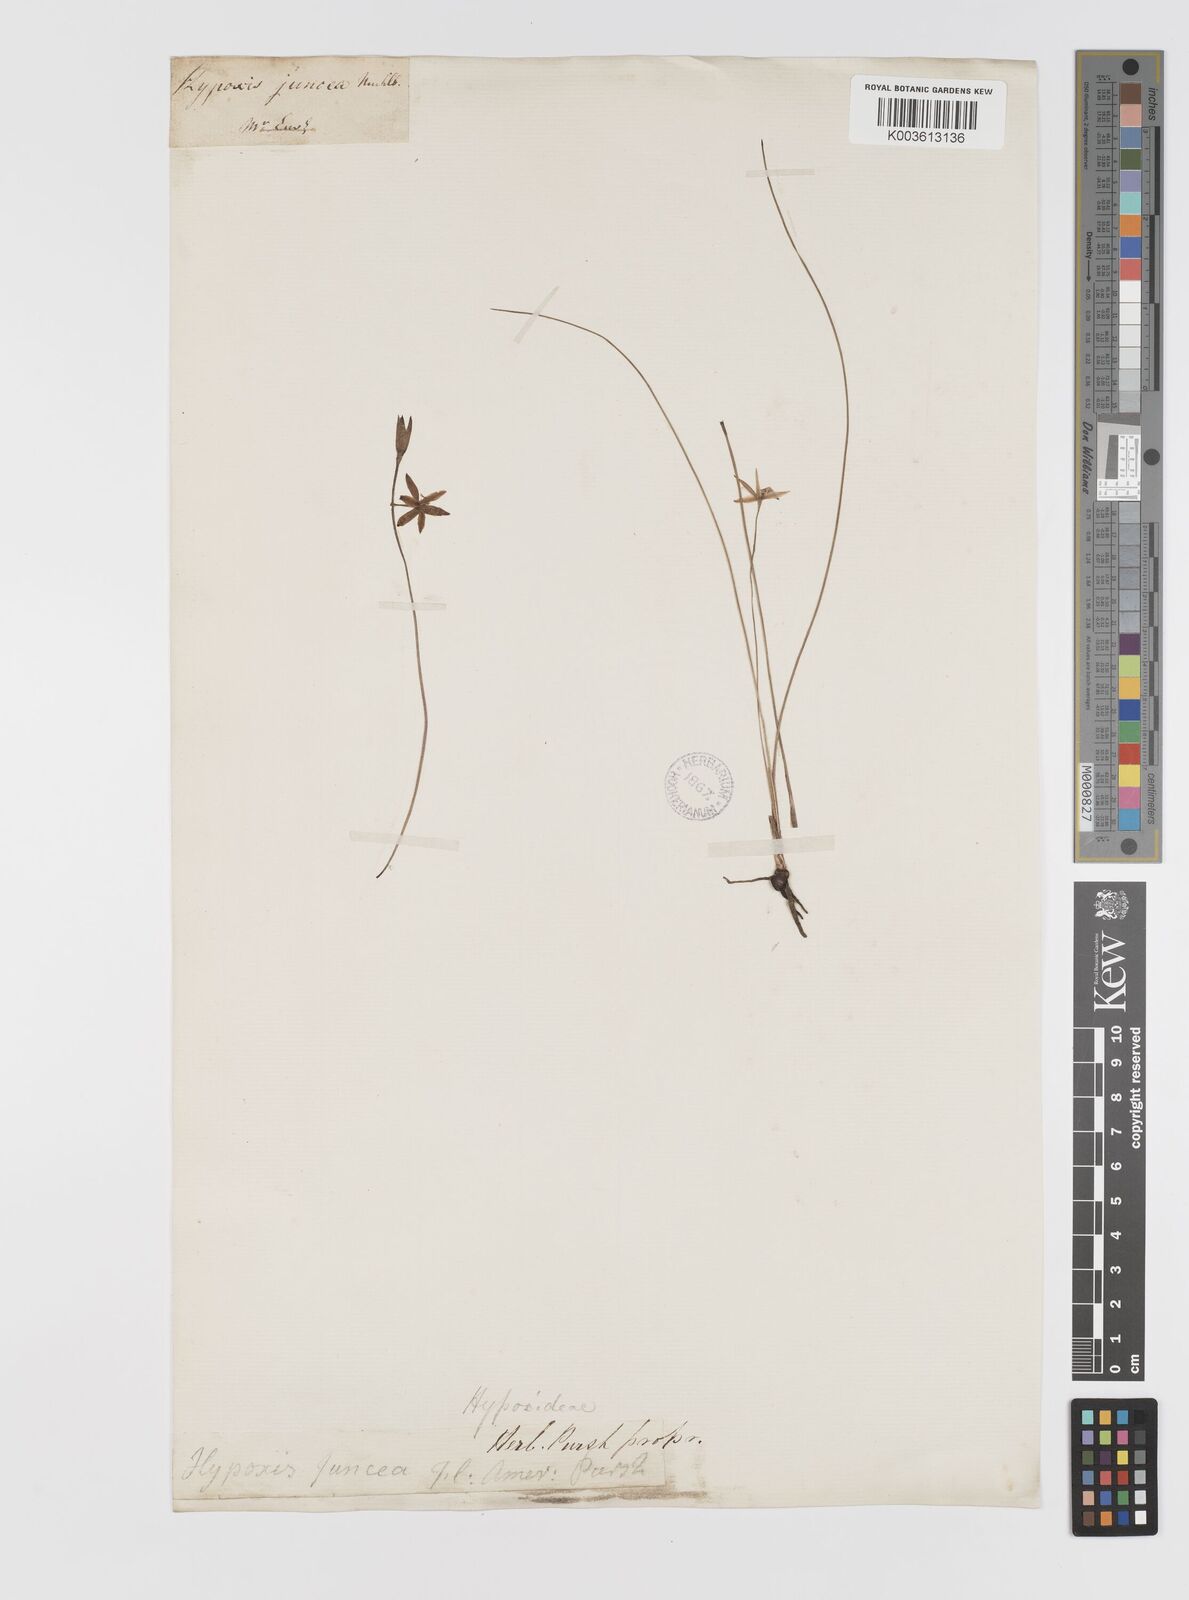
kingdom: Plantae
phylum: Tracheophyta
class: Liliopsida
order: Asparagales
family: Hypoxidaceae
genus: Hypoxis
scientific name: Hypoxis juncea
